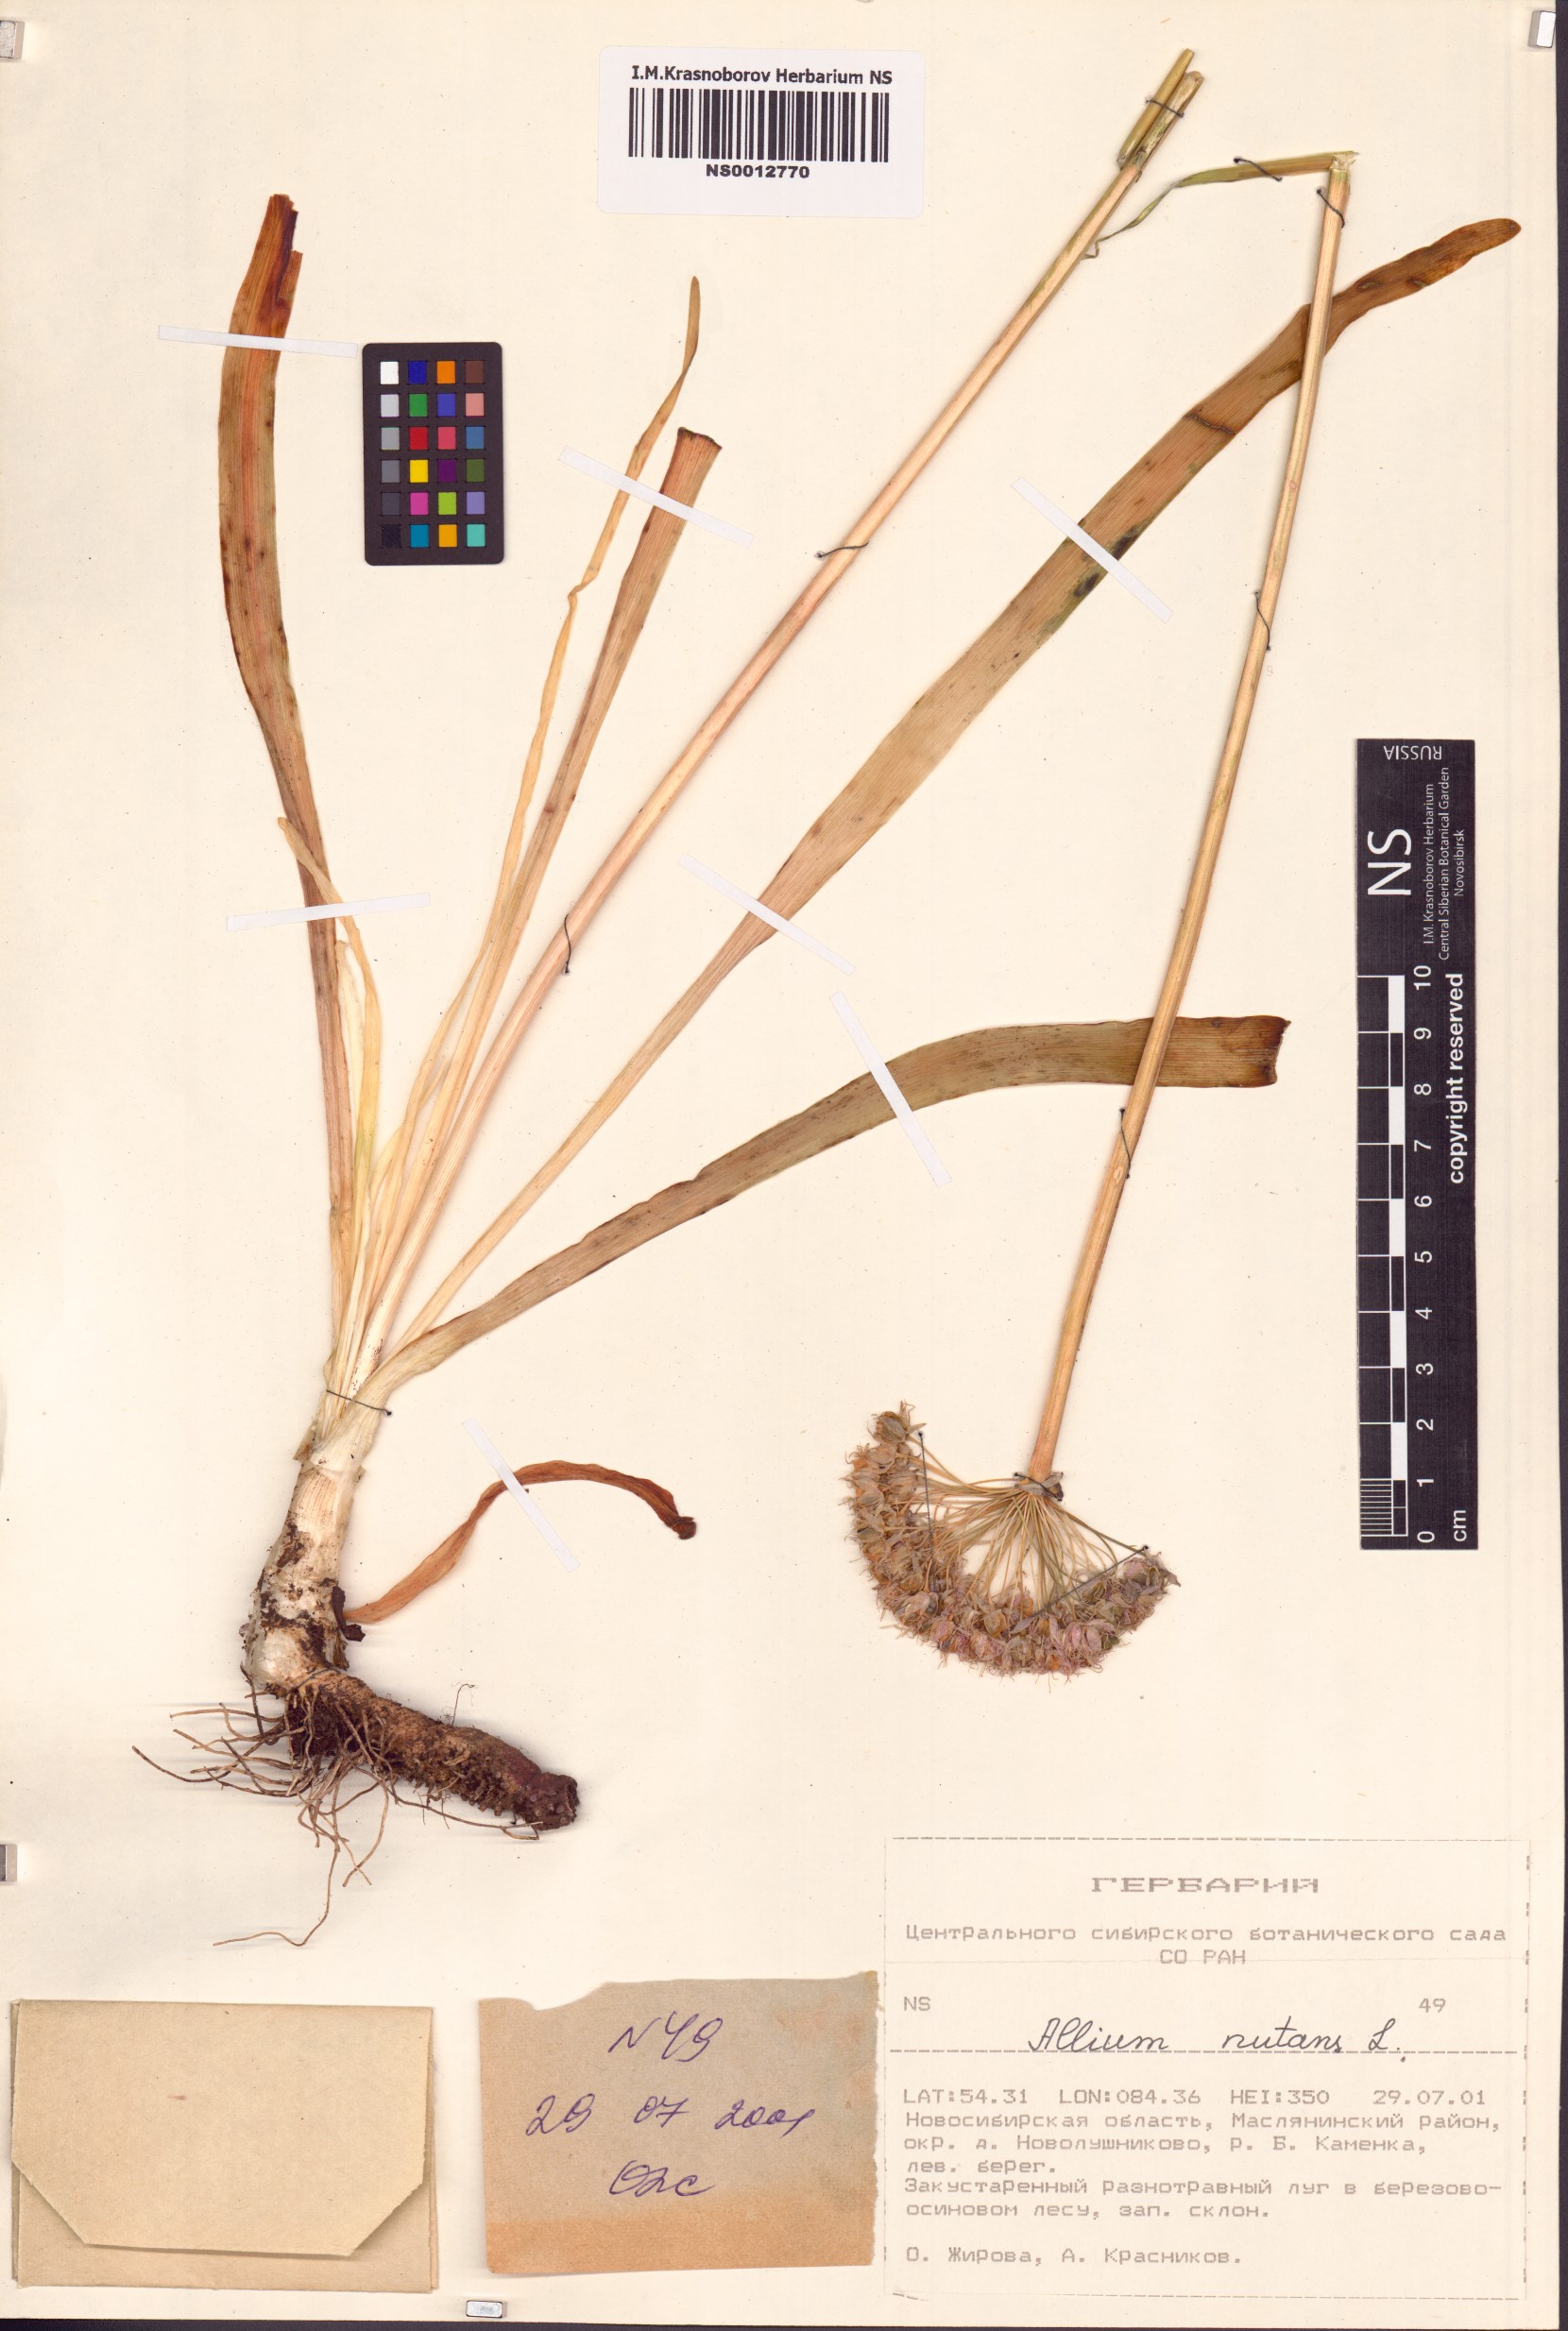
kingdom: Plantae
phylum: Tracheophyta
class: Liliopsida
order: Asparagales
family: Amaryllidaceae
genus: Allium
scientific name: Allium nutans
